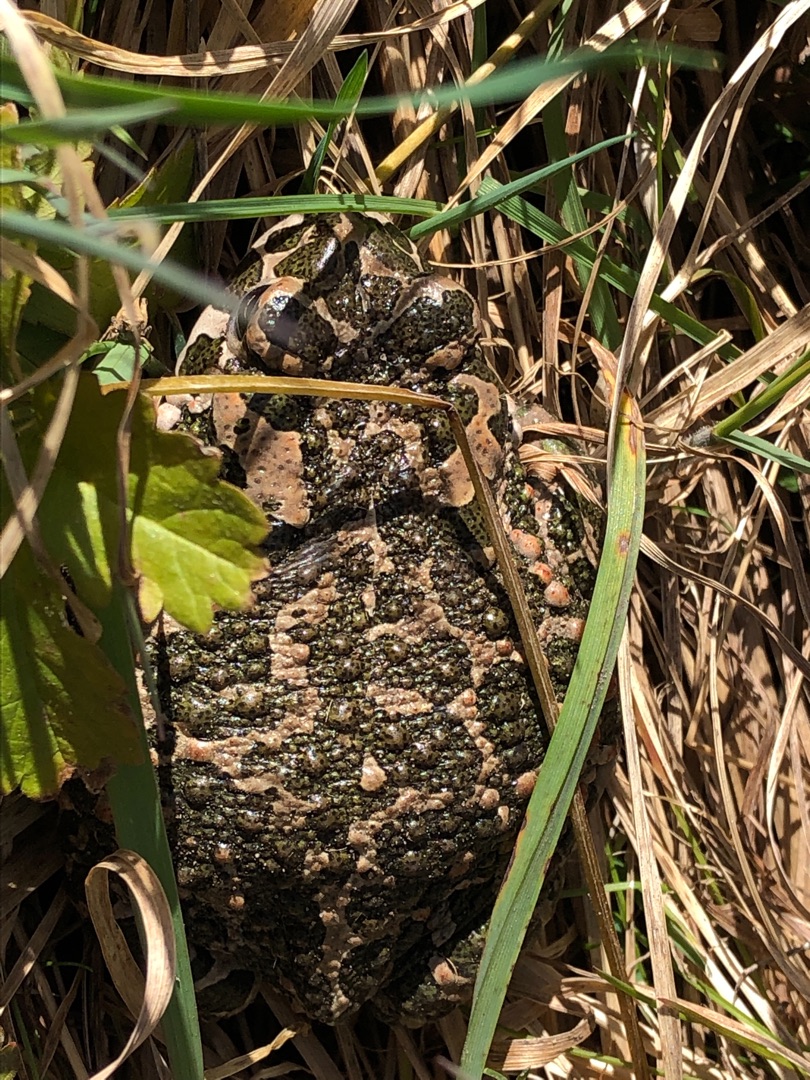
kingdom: Animalia
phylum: Chordata
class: Amphibia
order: Anura
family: Bufonidae
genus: Bufotes
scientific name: Bufotes viridis
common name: Grønbroget tudse
